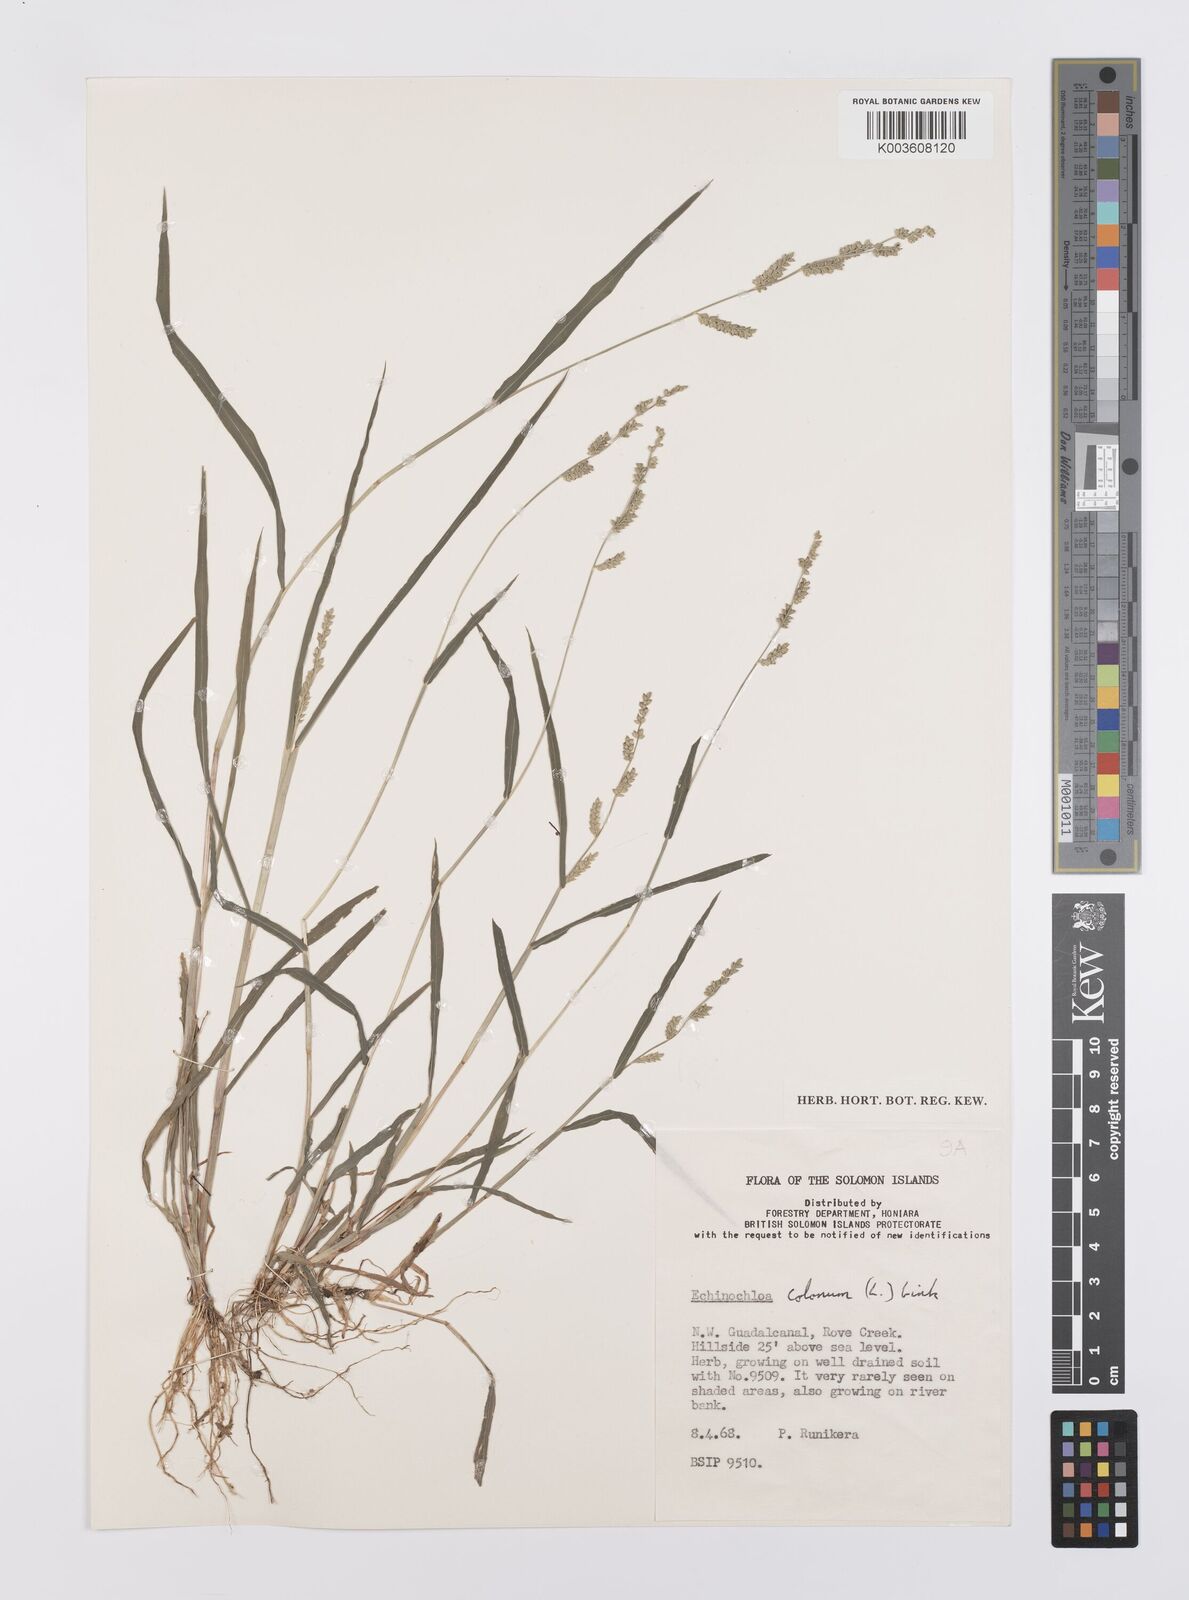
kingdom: Plantae
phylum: Tracheophyta
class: Liliopsida
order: Poales
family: Poaceae
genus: Echinochloa
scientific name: Echinochloa colonum
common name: Jungle rice
